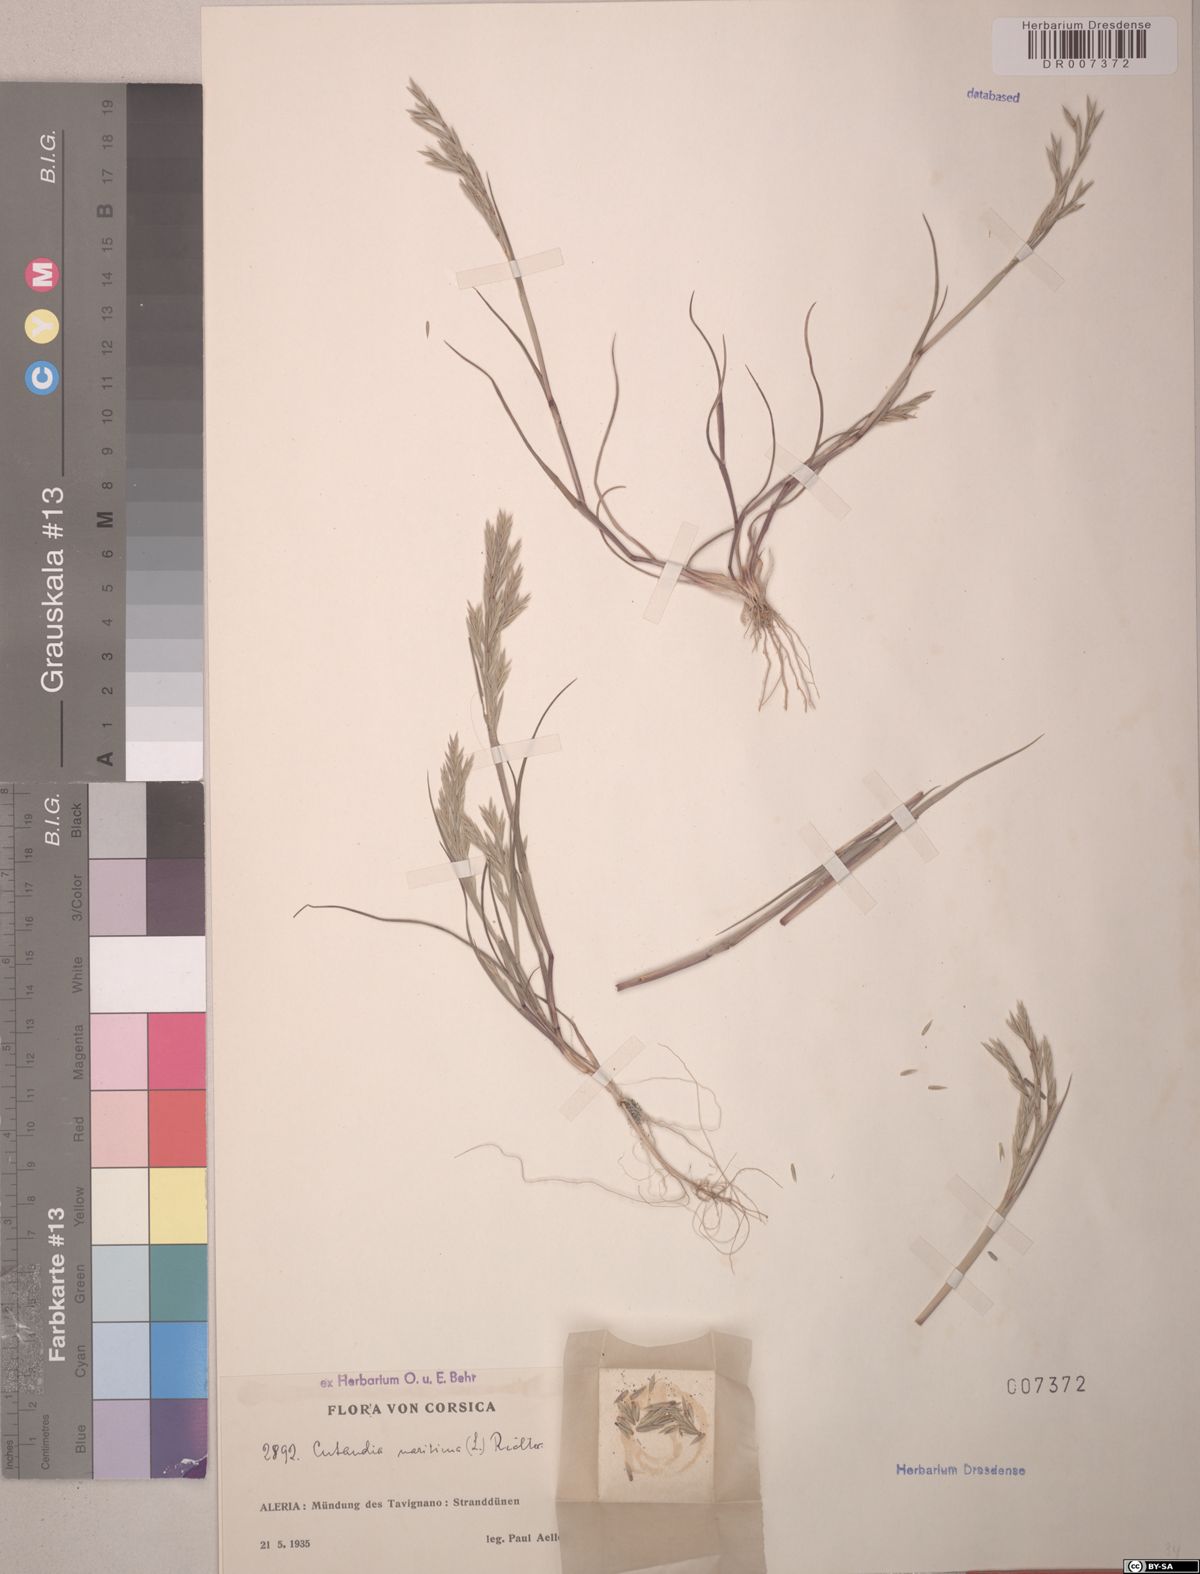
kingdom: Plantae
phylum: Tracheophyta
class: Liliopsida
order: Poales
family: Poaceae
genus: Cutandia
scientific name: Cutandia maritima
